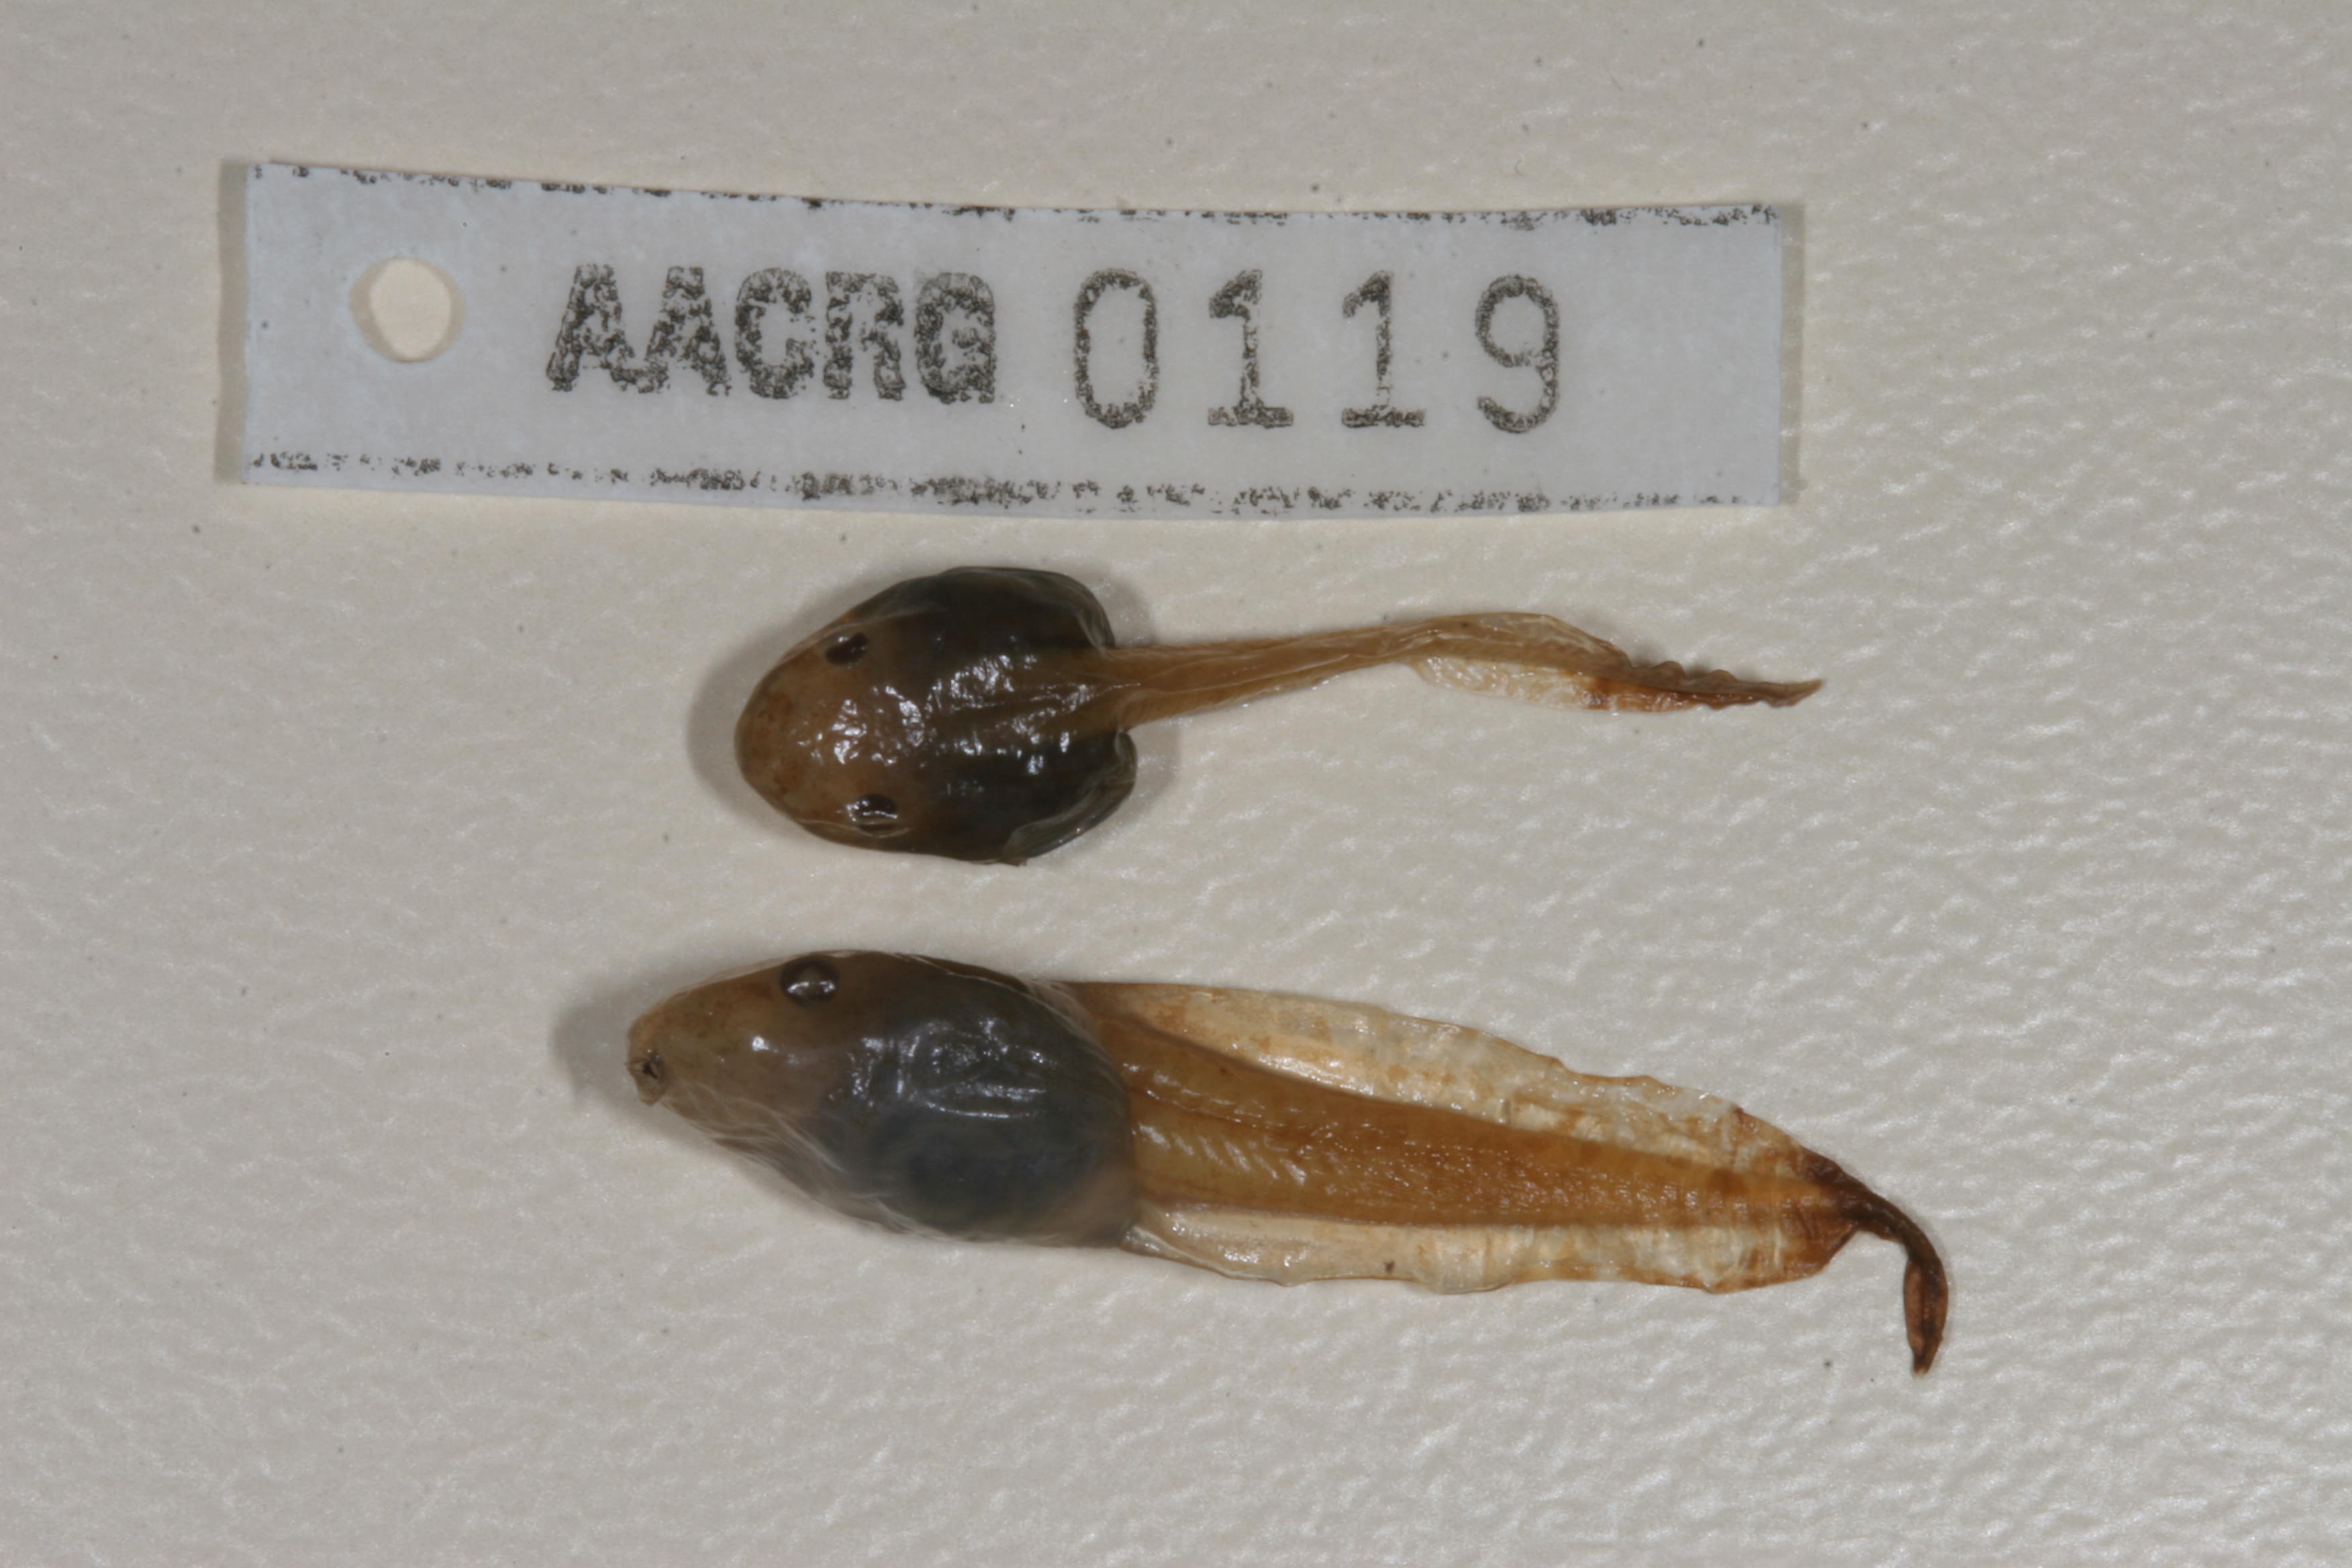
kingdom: Animalia
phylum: Chordata
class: Amphibia
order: Anura
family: Hyperoliidae
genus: Hyperolius
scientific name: Hyperolius marmoratus
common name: Painted reed frog
